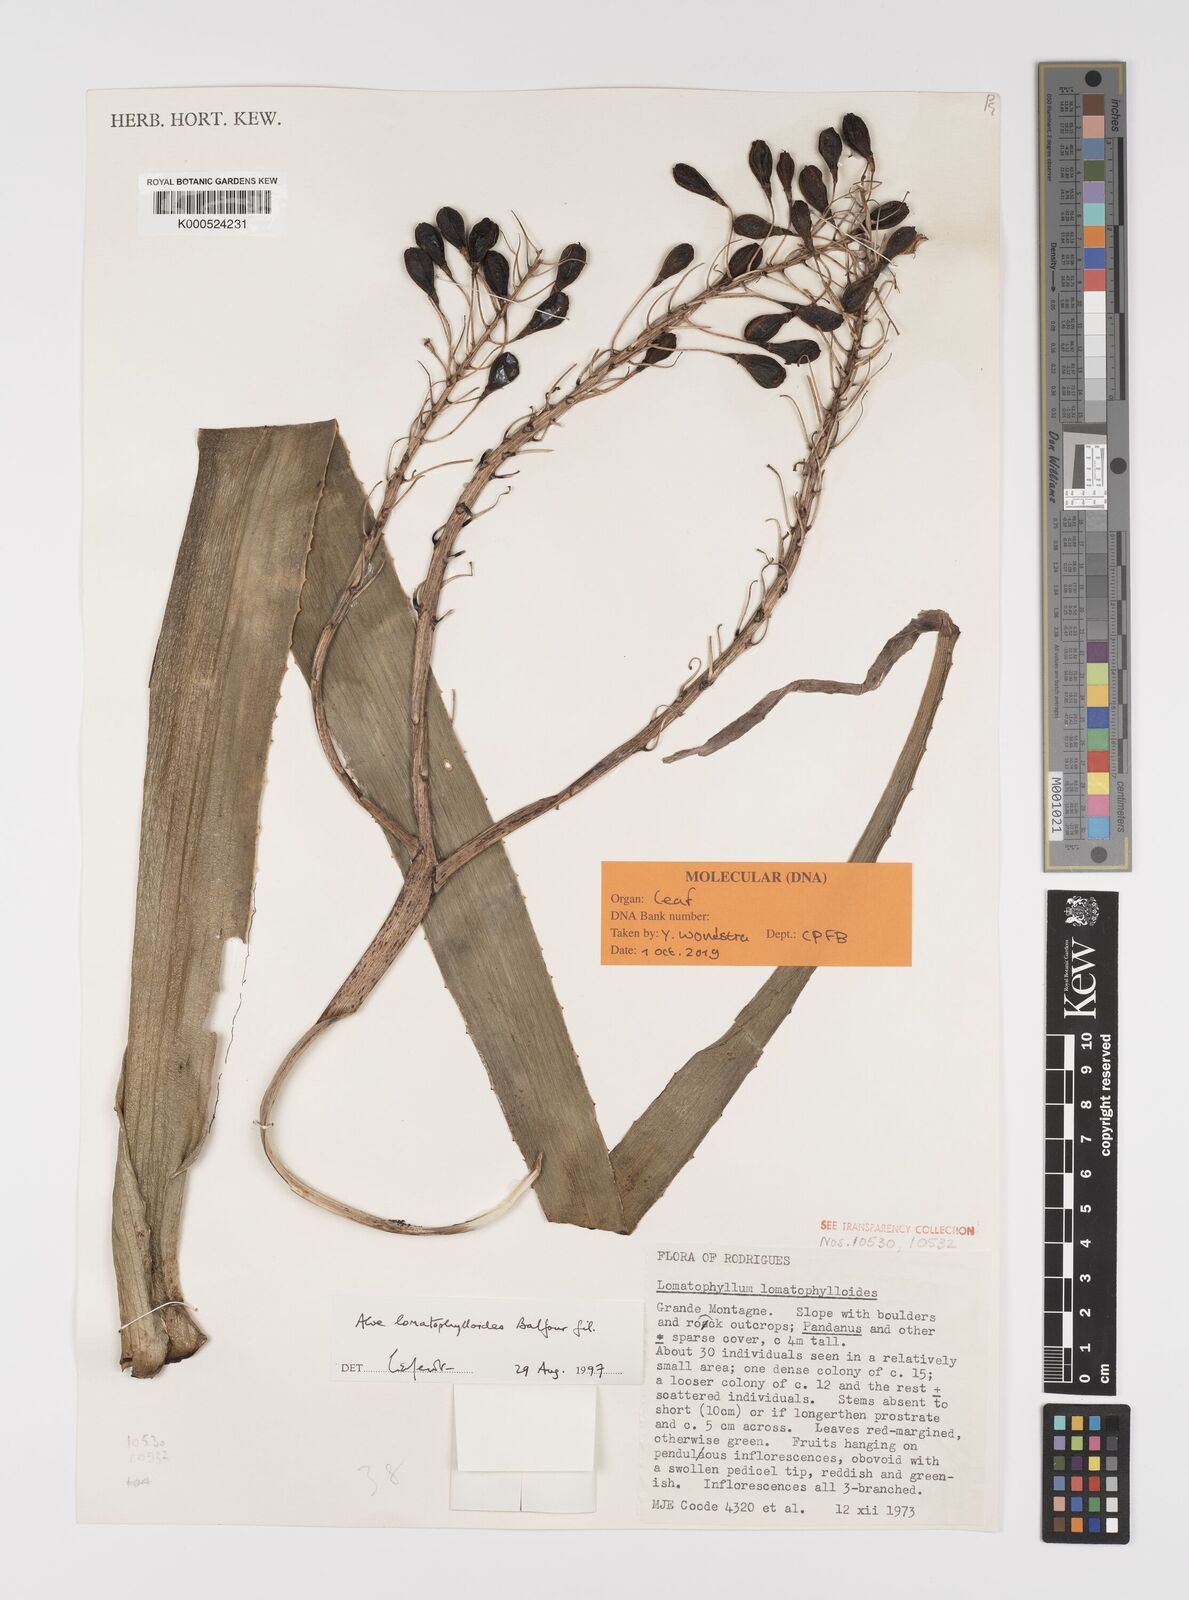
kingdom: Plantae
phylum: Tracheophyta
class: Liliopsida
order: Asparagales
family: Asphodelaceae
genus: Aloe
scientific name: Aloe lomatophylloides
